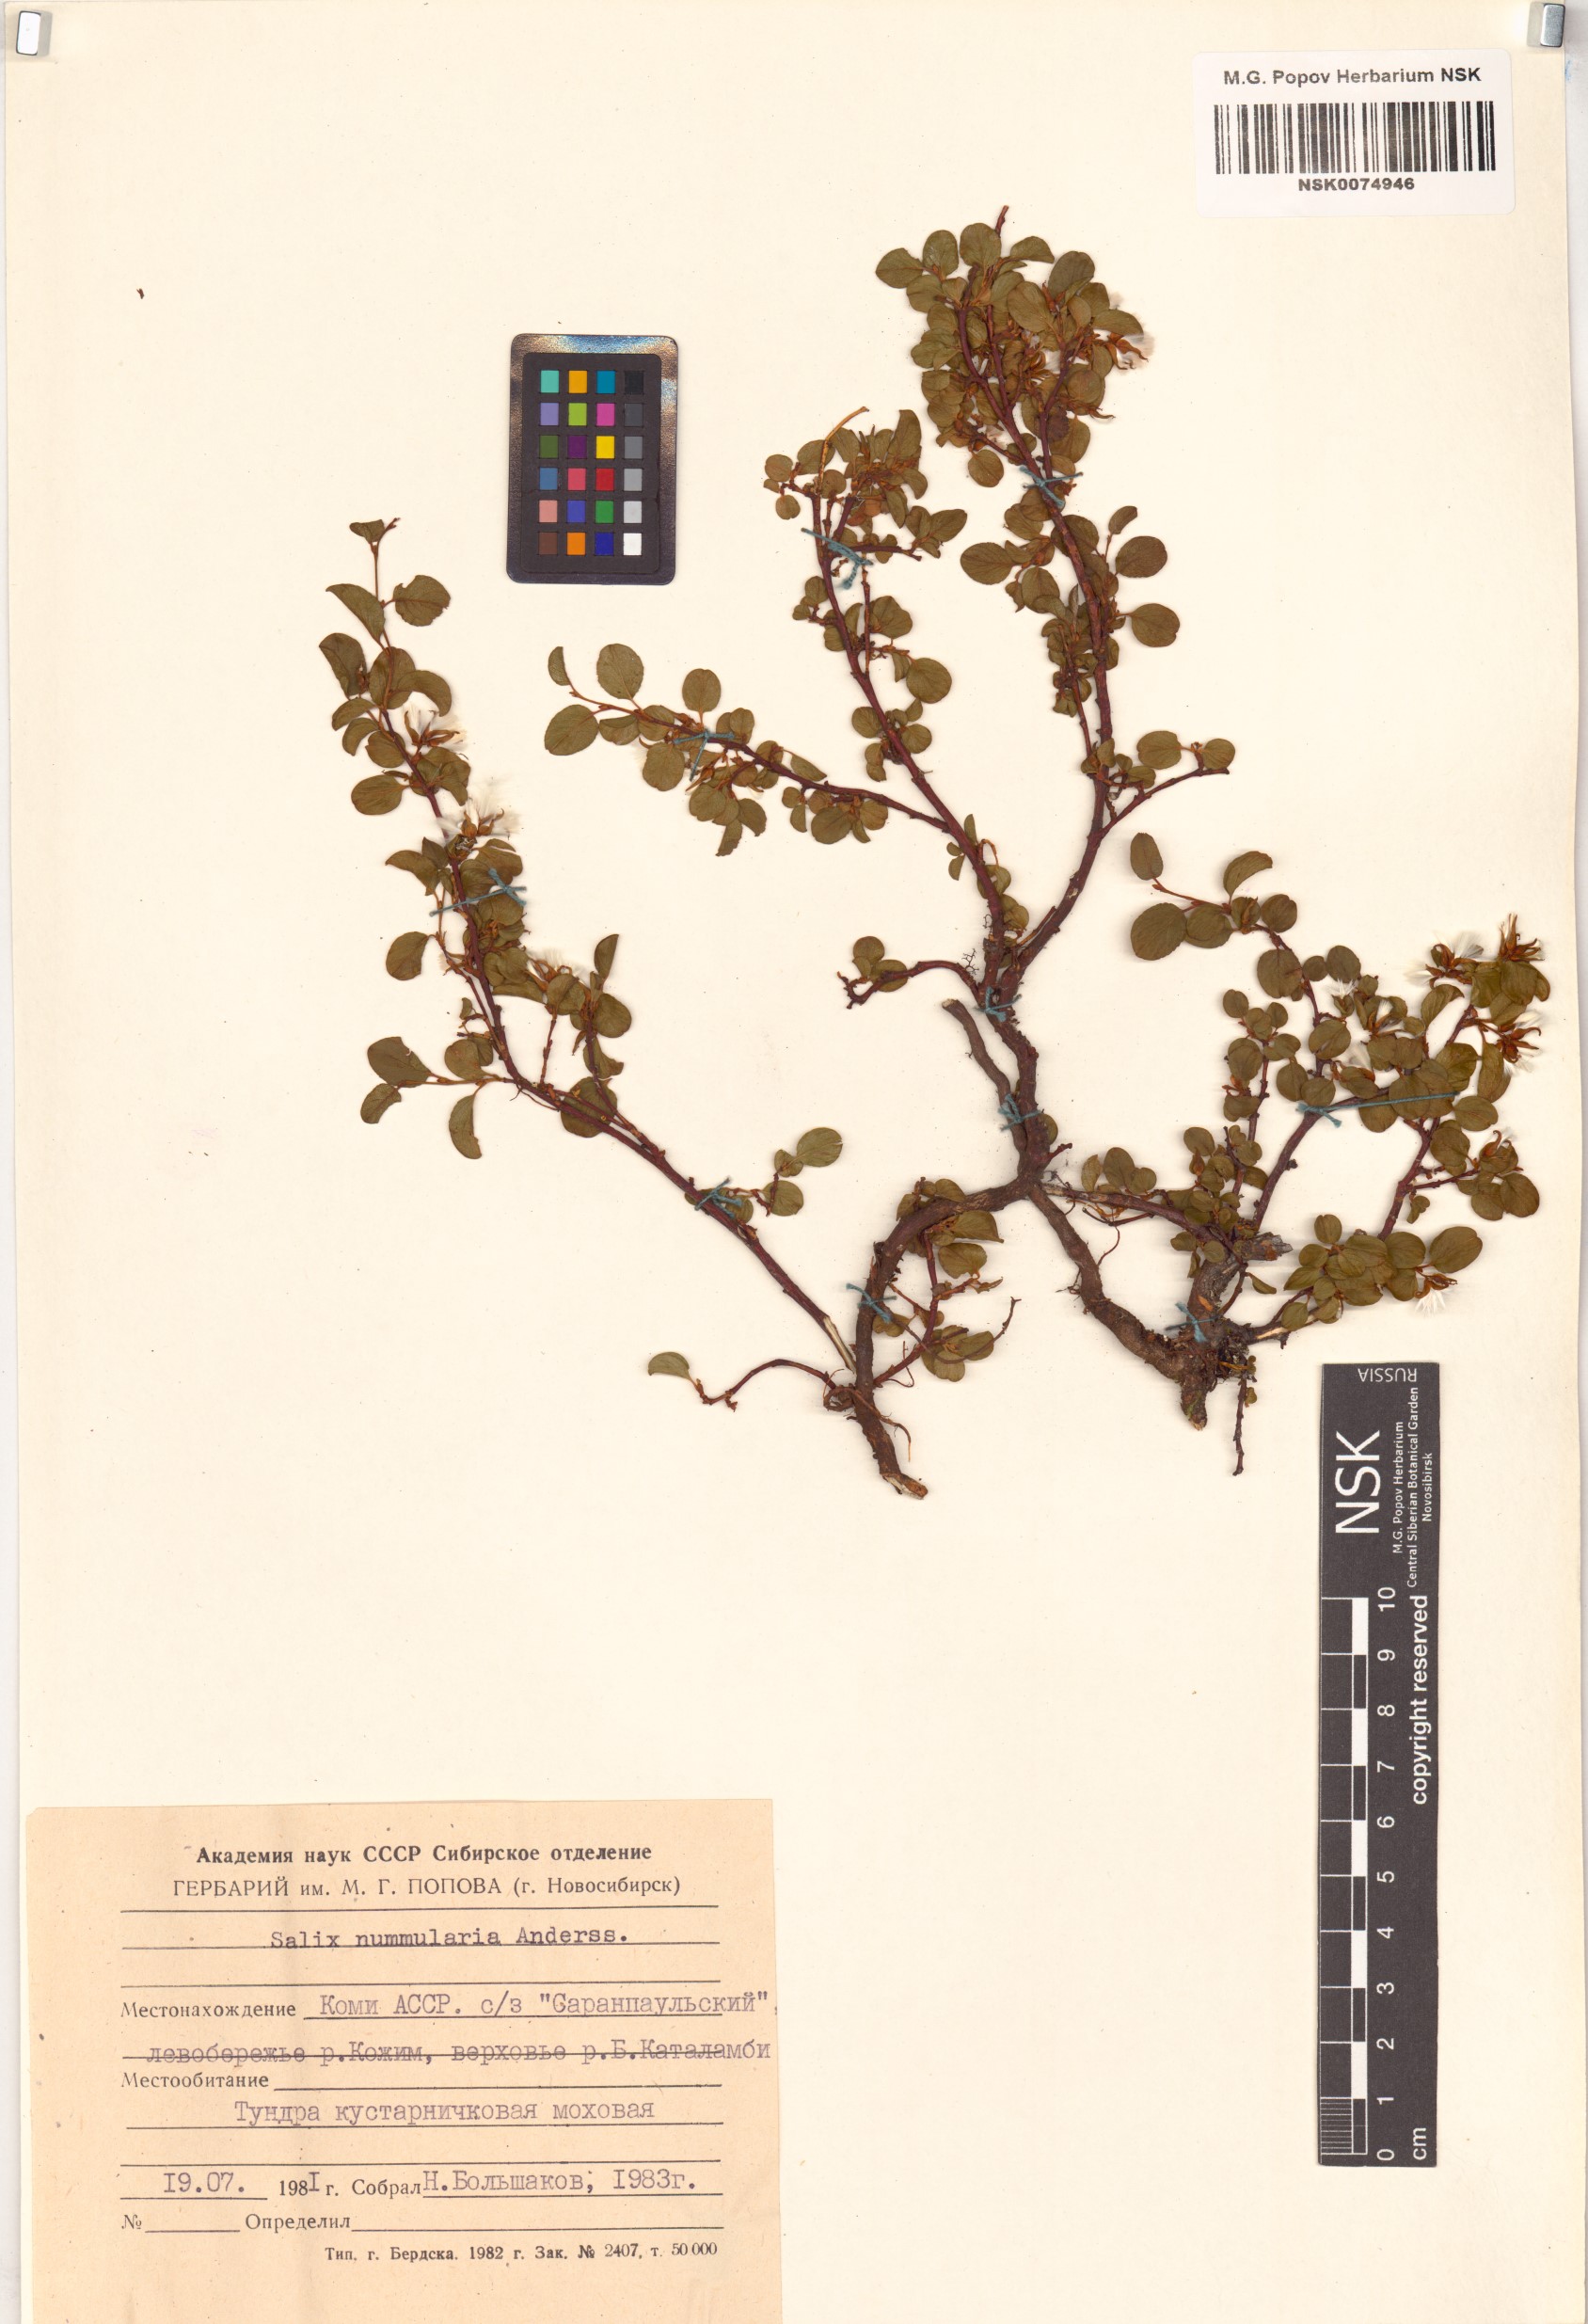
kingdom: Plantae
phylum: Tracheophyta
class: Magnoliopsida
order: Malpighiales
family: Salicaceae
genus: Salix
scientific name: Salix nummularia
